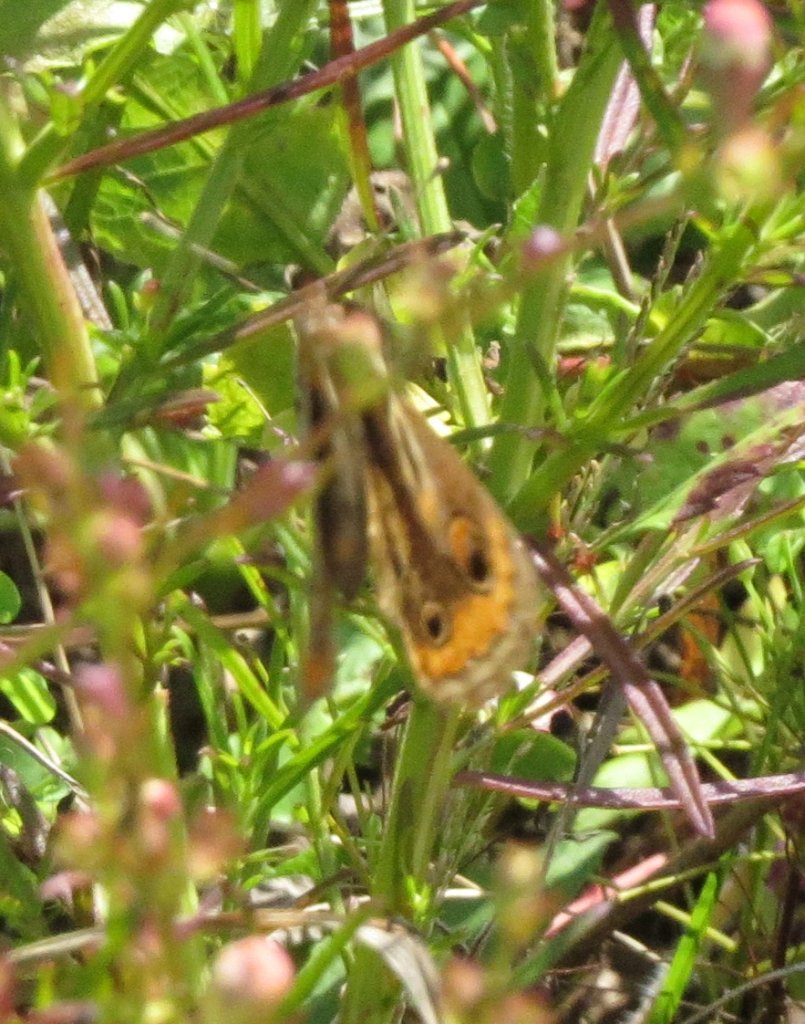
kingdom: Animalia
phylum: Arthropoda
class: Insecta
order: Lepidoptera
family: Nymphalidae
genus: Junonia
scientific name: Junonia coenia
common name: Common Buckeye
